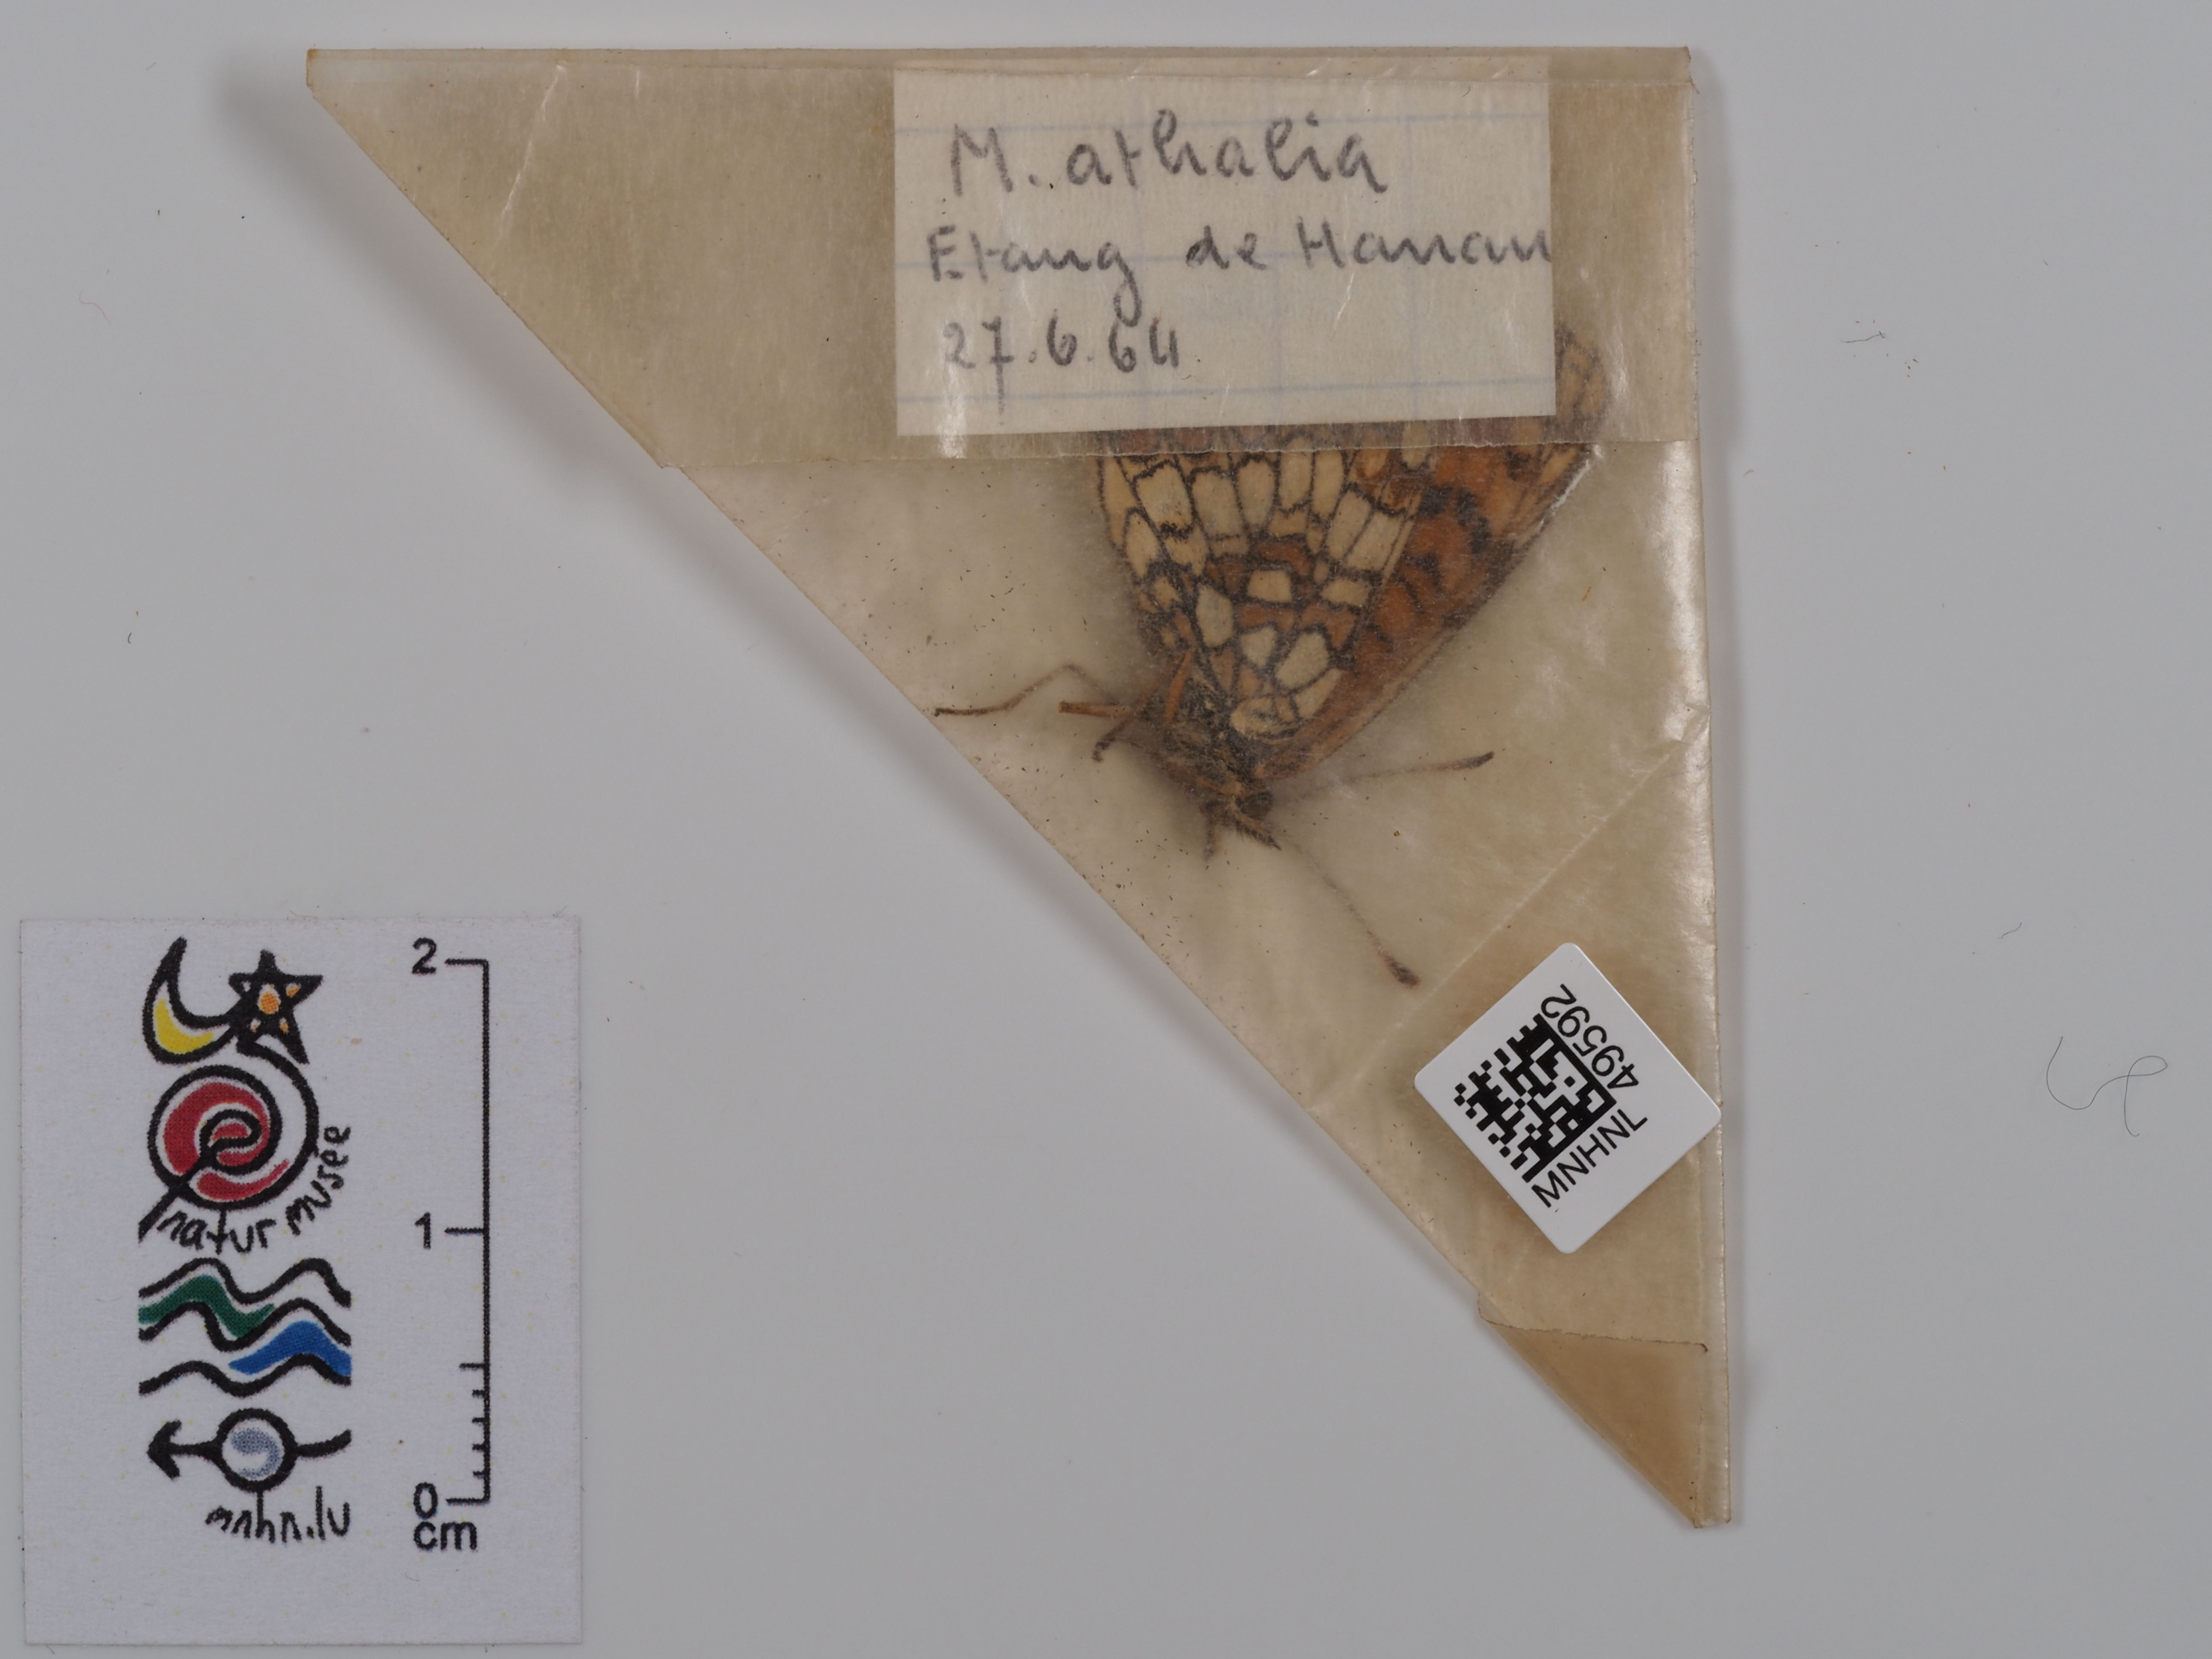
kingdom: Animalia
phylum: Arthropoda
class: Insecta
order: Lepidoptera
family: Nymphalidae
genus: Mellicta
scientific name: Mellicta athalia
